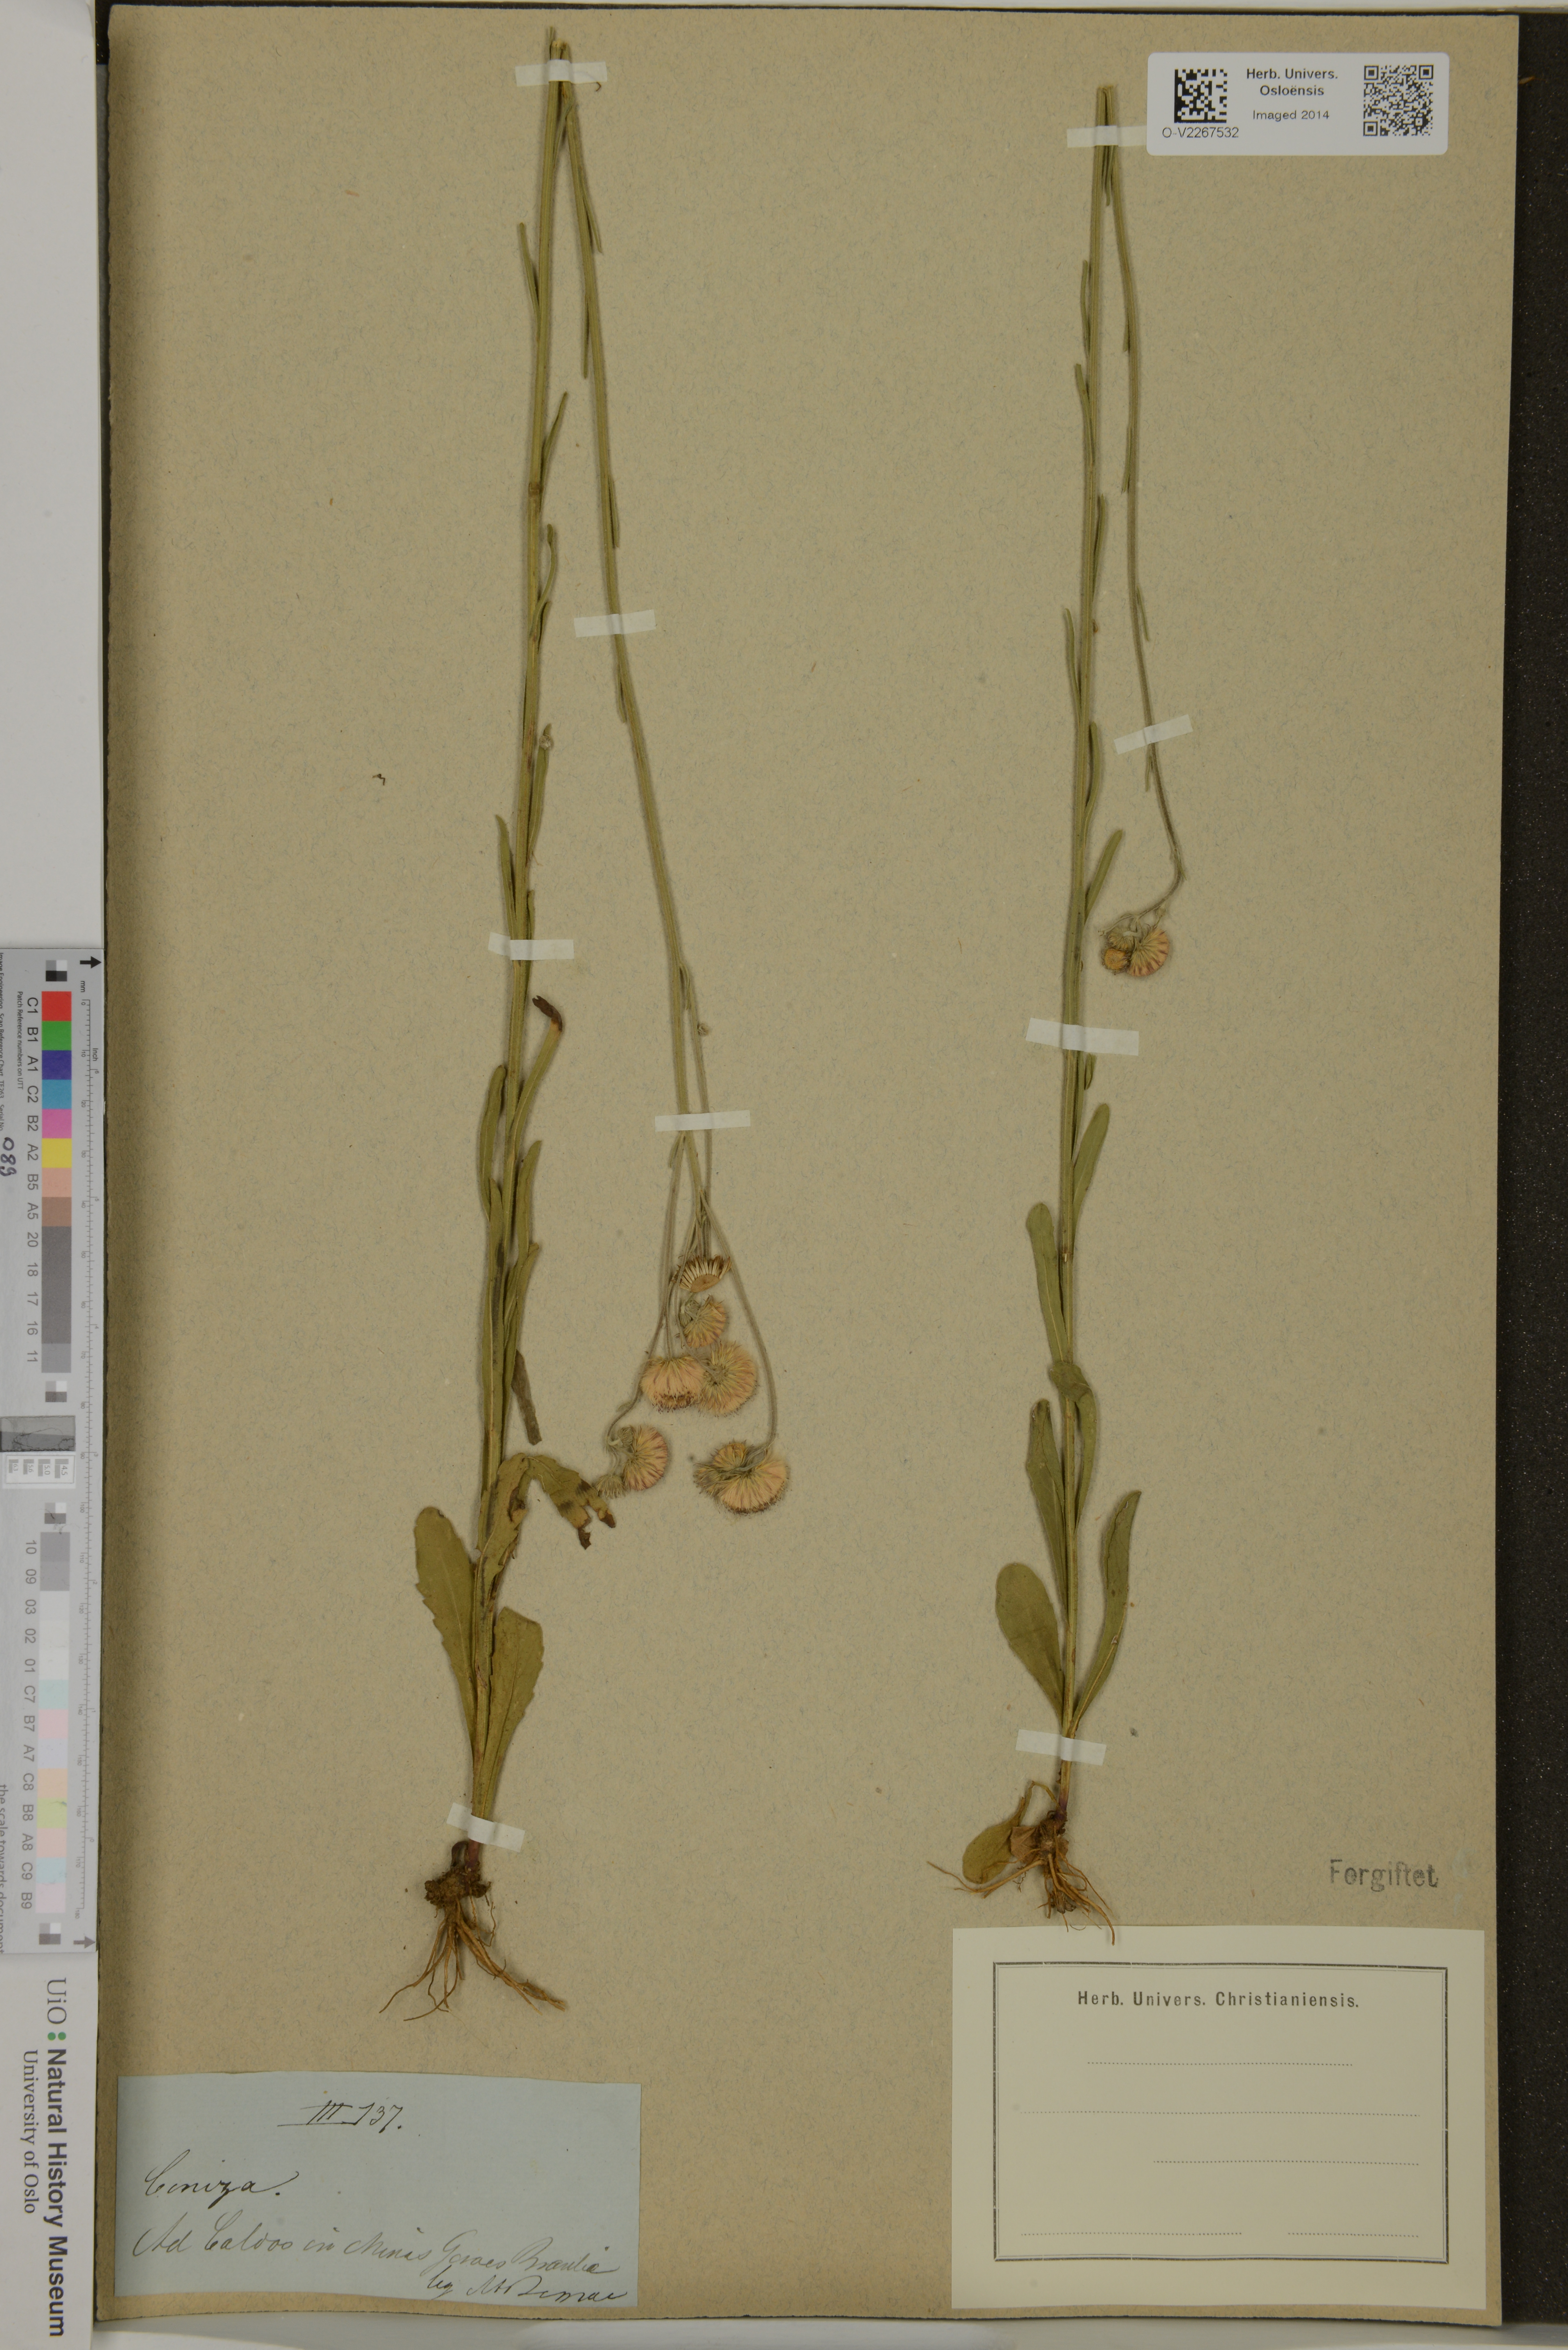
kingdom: Plantae
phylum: Tracheophyta
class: Magnoliopsida
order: Asterales
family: Asteraceae
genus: Conyza
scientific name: Conyza
